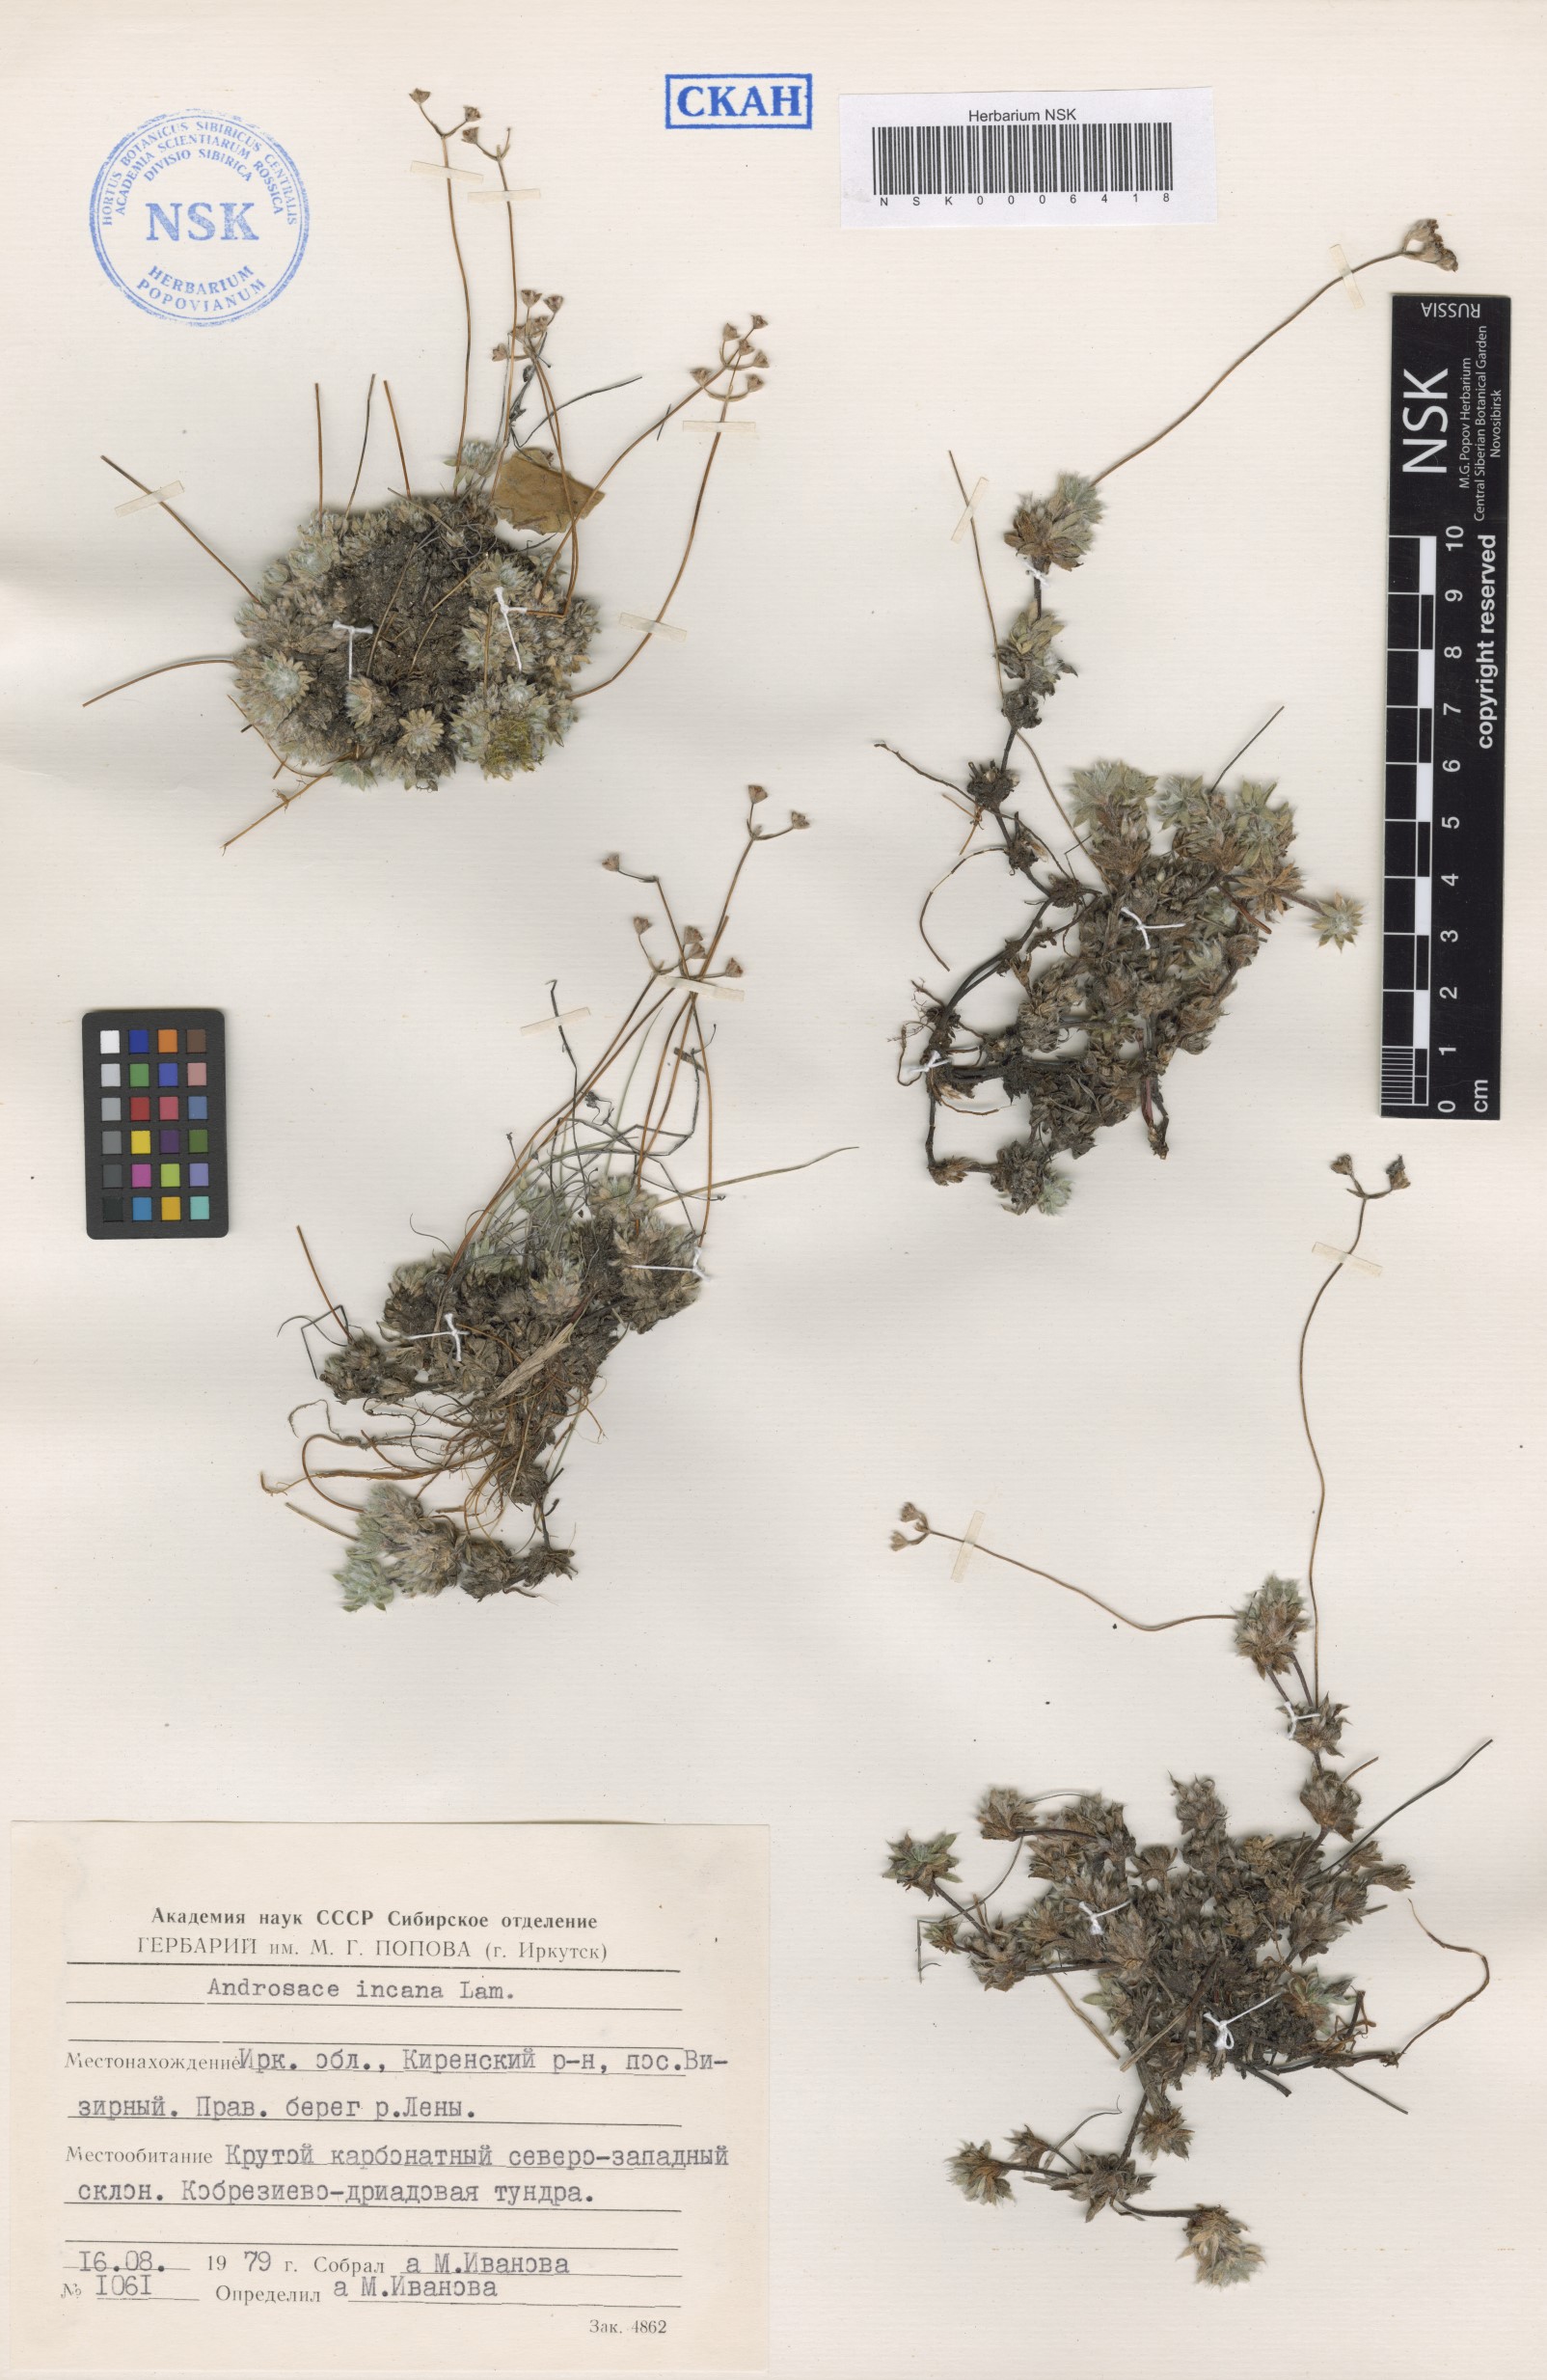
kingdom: Plantae
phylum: Tracheophyta
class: Magnoliopsida
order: Ericales
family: Primulaceae
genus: Androsace
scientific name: Androsace incana
